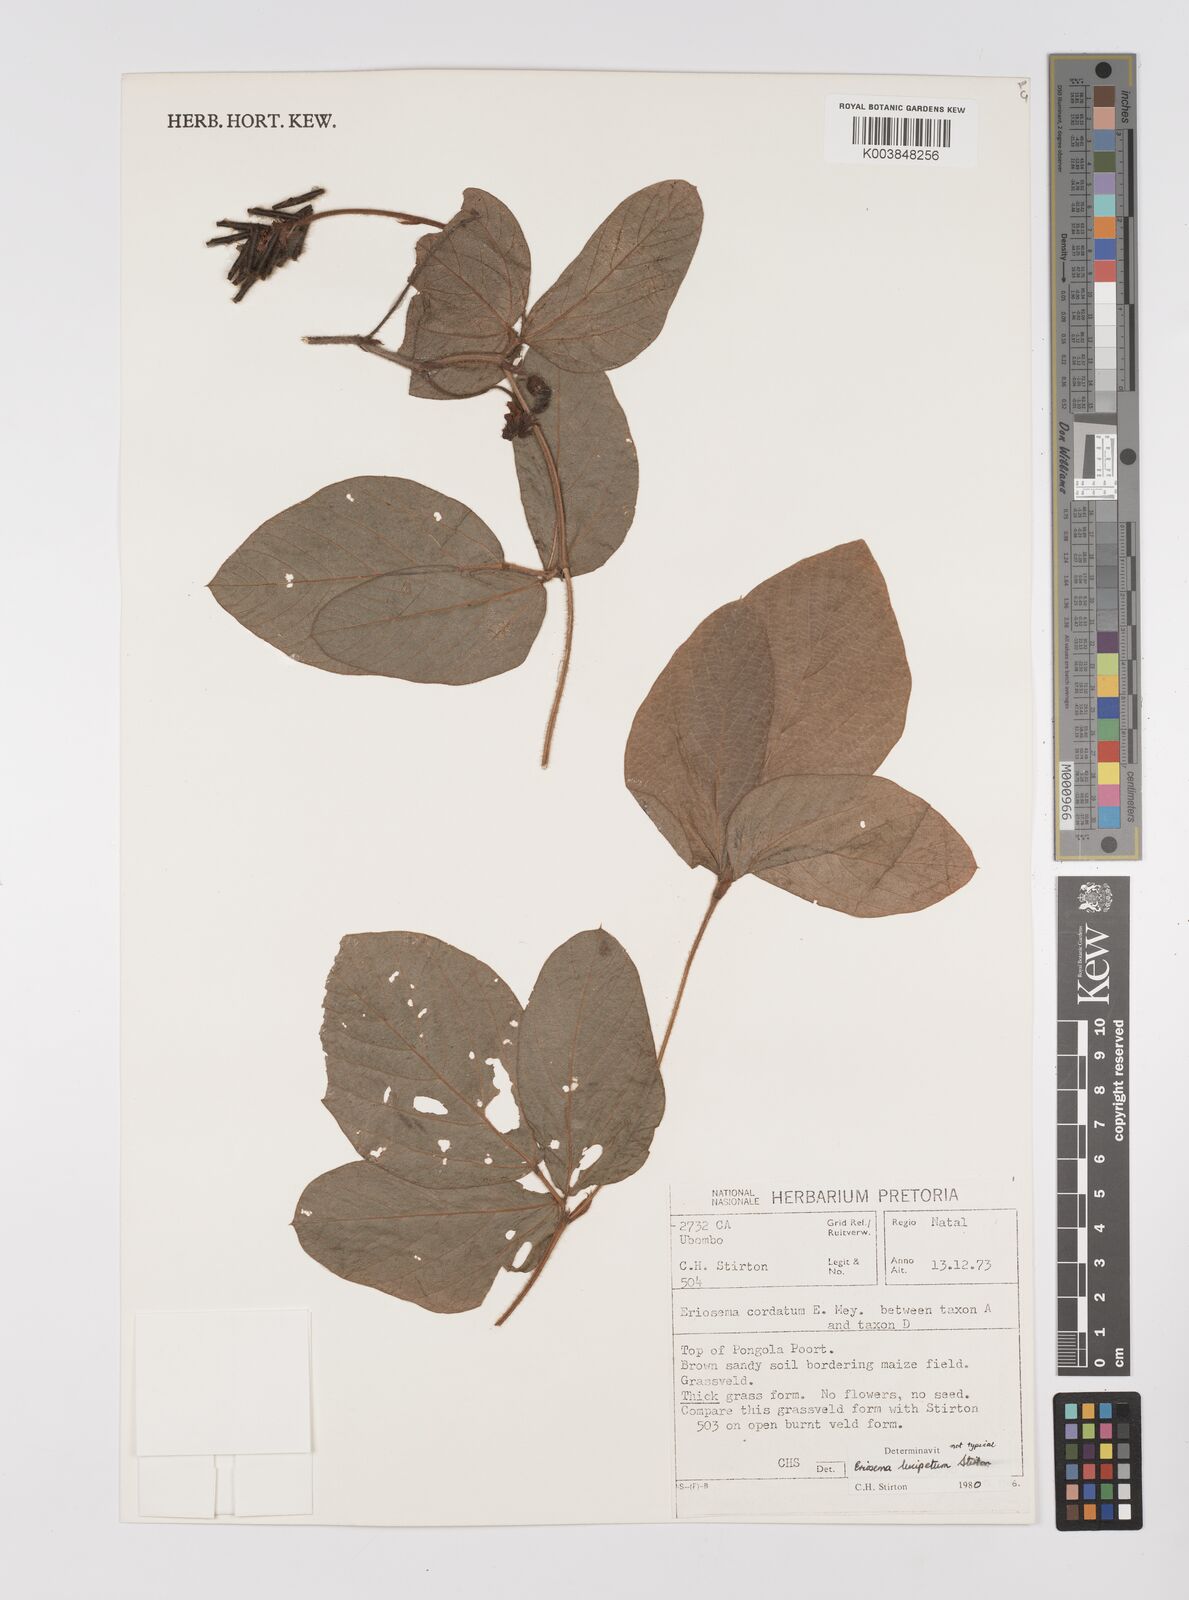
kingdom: Plantae
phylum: Tracheophyta
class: Magnoliopsida
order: Fabales
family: Fabaceae
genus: Eriosema
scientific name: Eriosema lucipetum
